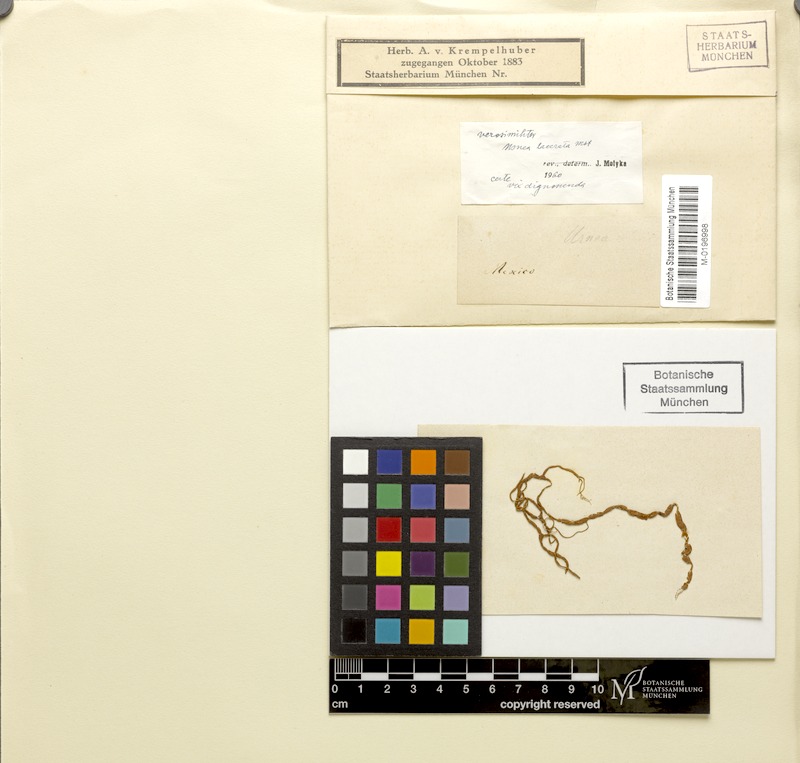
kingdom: Fungi
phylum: Ascomycota
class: Lecanoromycetes
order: Lecanorales
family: Parmeliaceae
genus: Usnea
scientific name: Usnea lacerata
